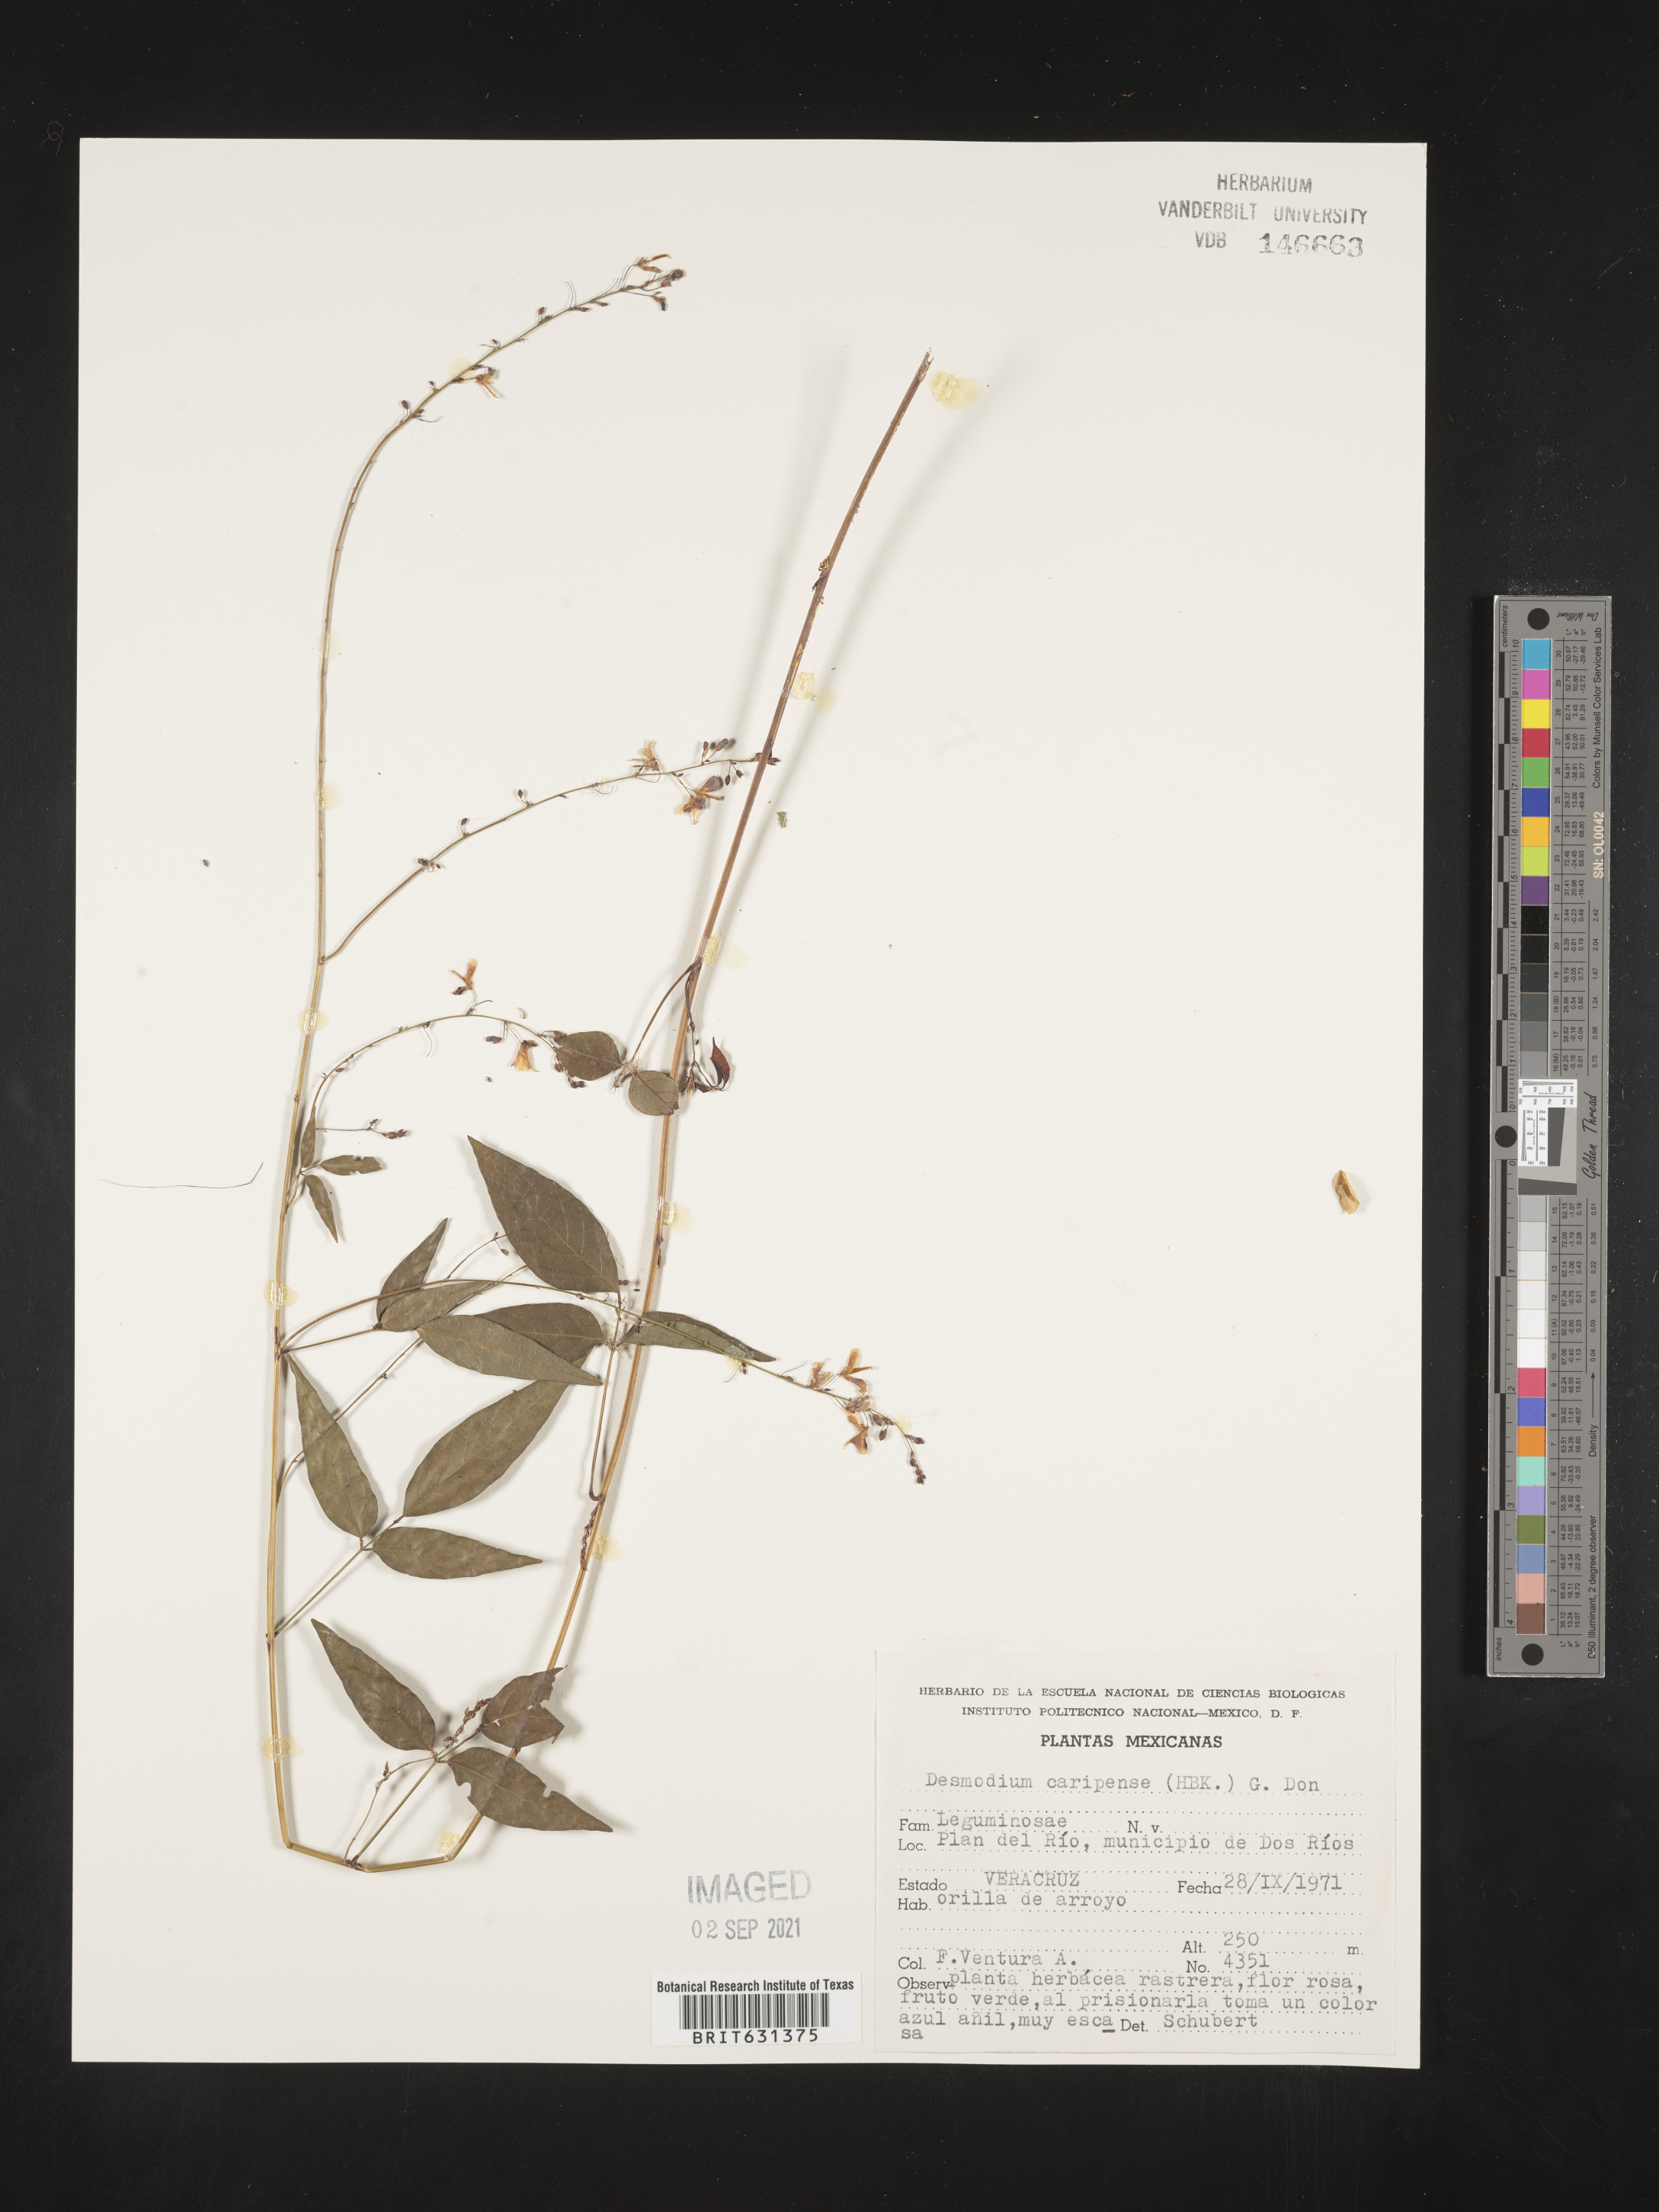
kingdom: Plantae
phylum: Tracheophyta
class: Magnoliopsida
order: Fabales
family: Fabaceae
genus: Desmodium
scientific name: Desmodium caripense
